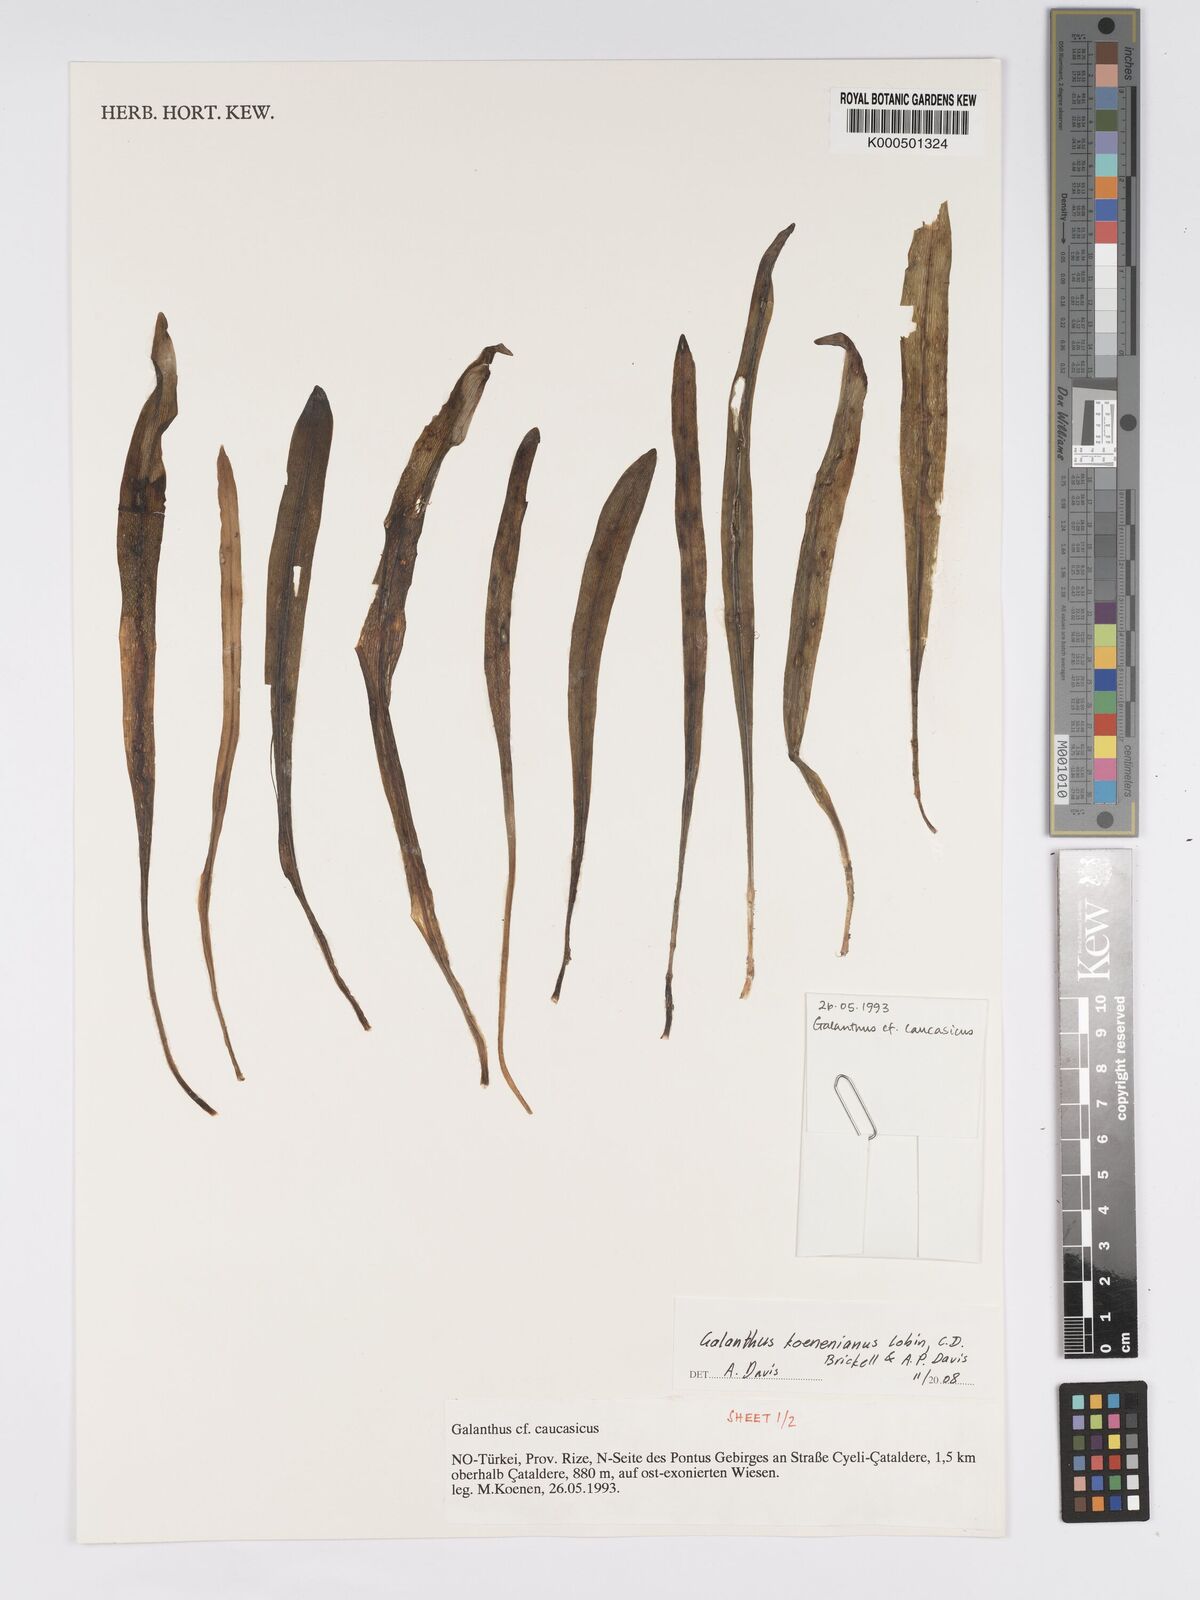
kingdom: Plantae
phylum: Tracheophyta
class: Liliopsida
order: Asparagales
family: Amaryllidaceae
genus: Galanthus
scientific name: Galanthus koenenianus
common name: Koenen's snowdrop
